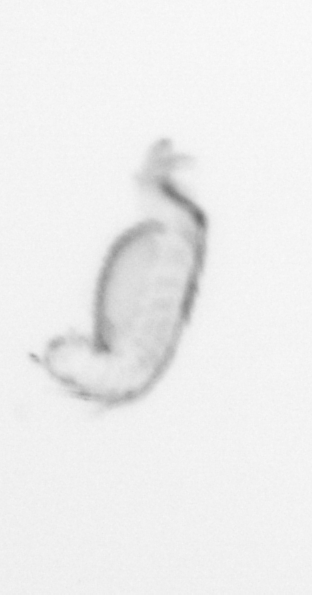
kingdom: Animalia
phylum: Annelida
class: Polychaeta
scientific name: Polychaeta
